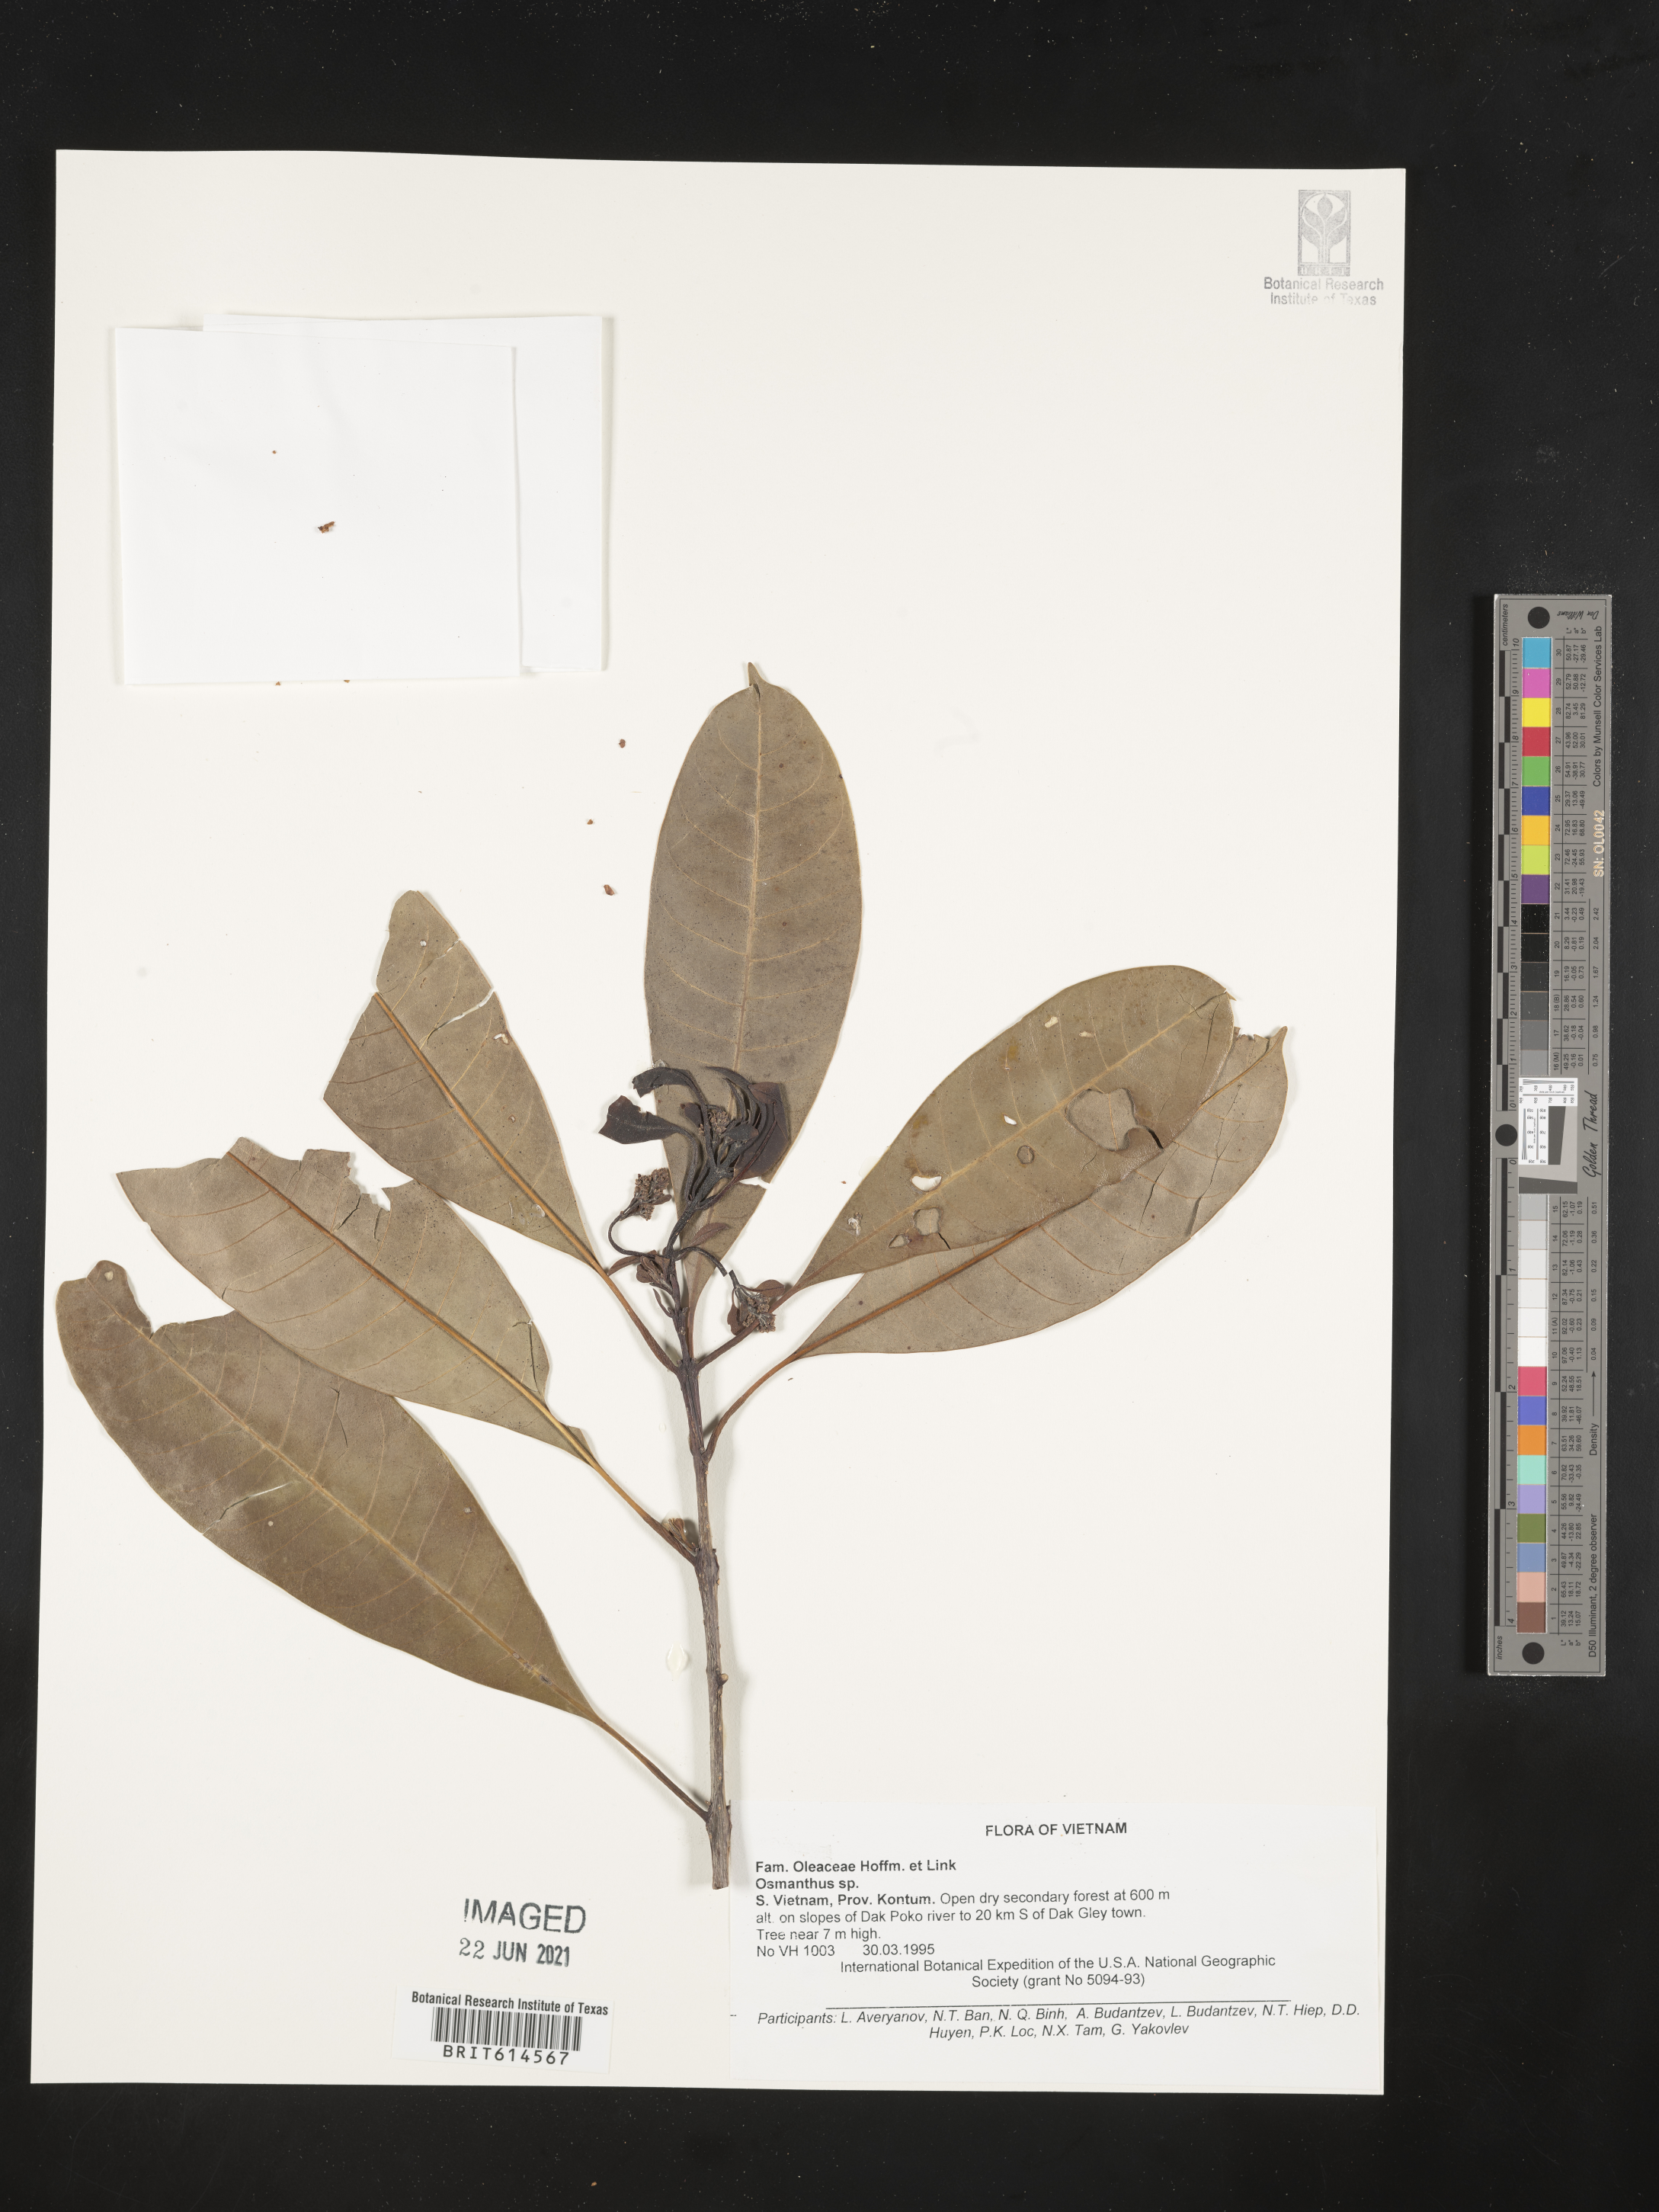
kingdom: Plantae
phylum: Tracheophyta
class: Magnoliopsida
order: Lamiales
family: Oleaceae
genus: Osmanthus
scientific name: Osmanthus
